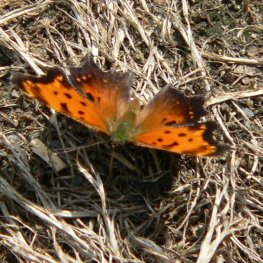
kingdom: Animalia
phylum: Arthropoda
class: Insecta
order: Lepidoptera
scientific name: Lepidoptera
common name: Butterflies
